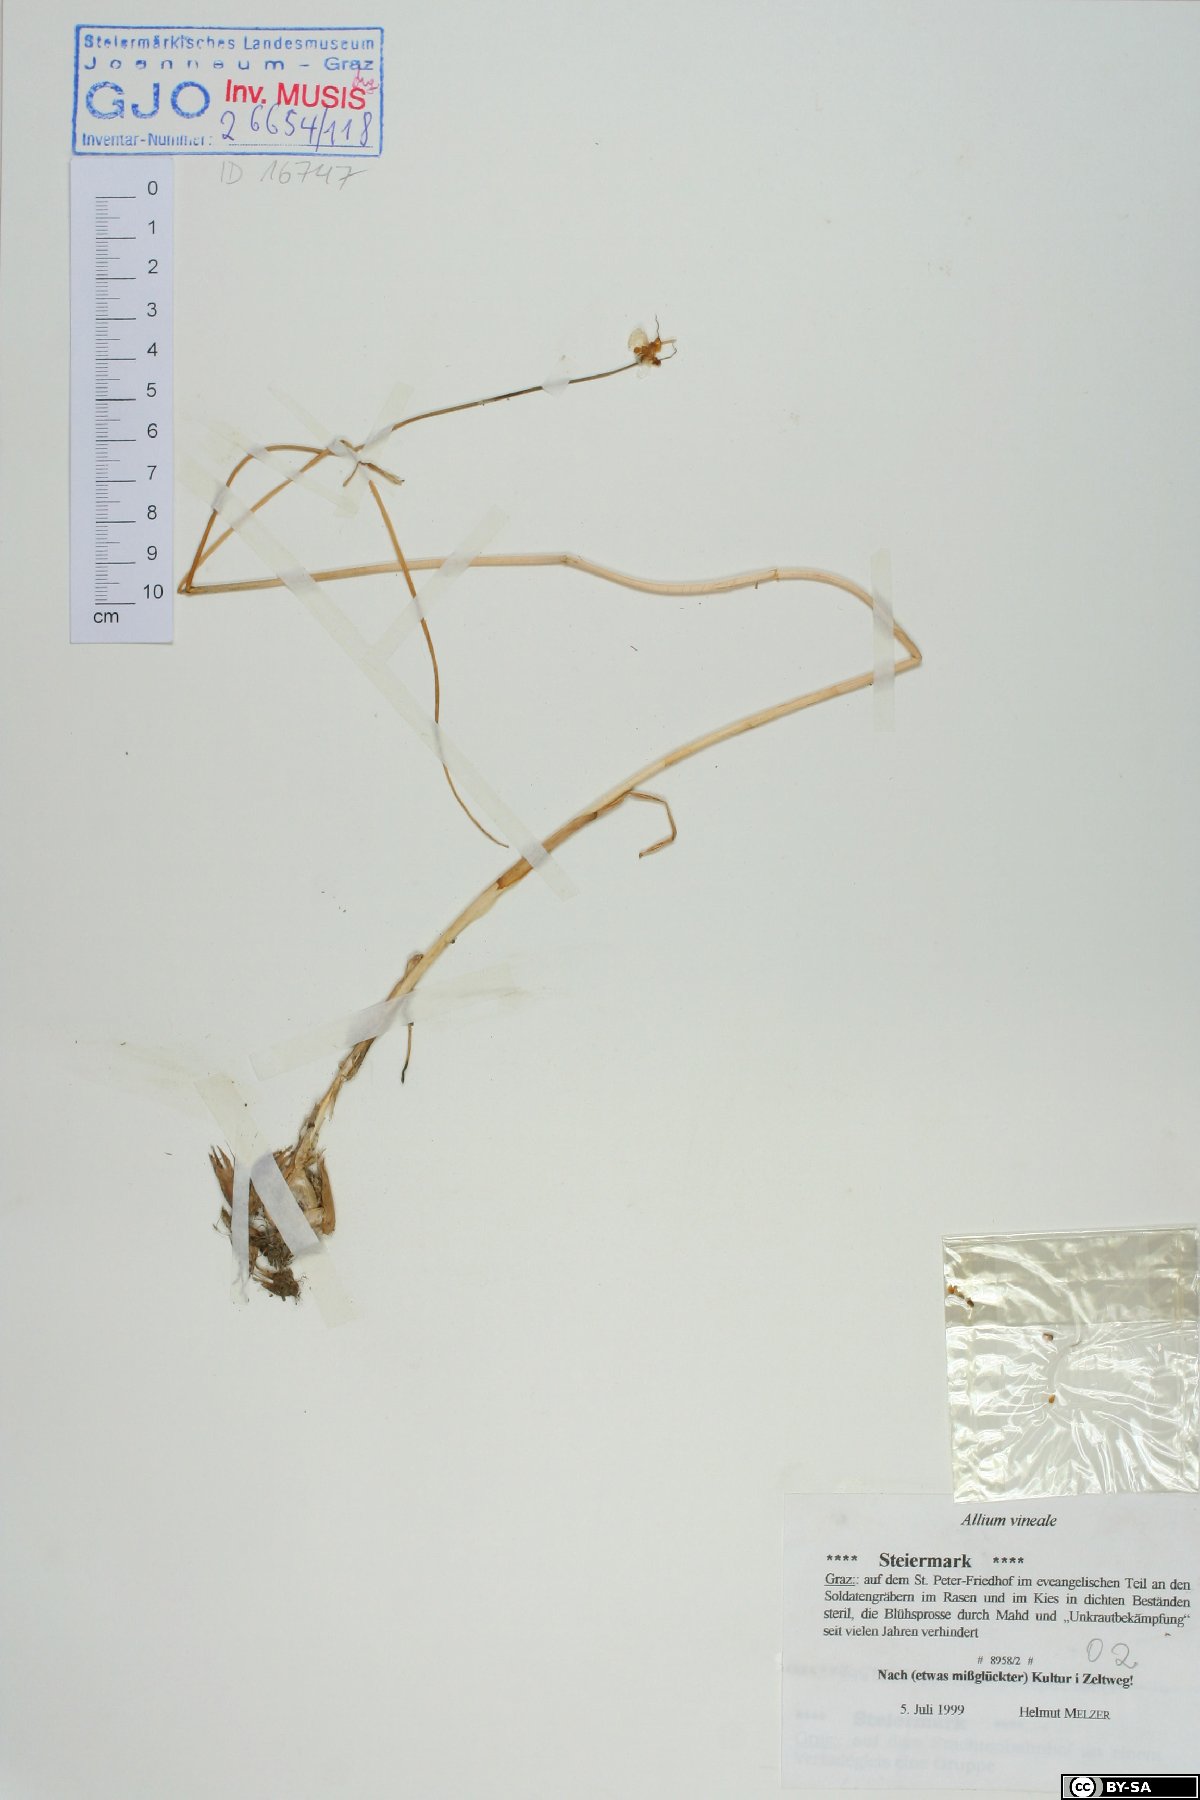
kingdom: Plantae
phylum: Tracheophyta
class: Liliopsida
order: Asparagales
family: Amaryllidaceae
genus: Allium
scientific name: Allium vineale
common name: Crow garlic
